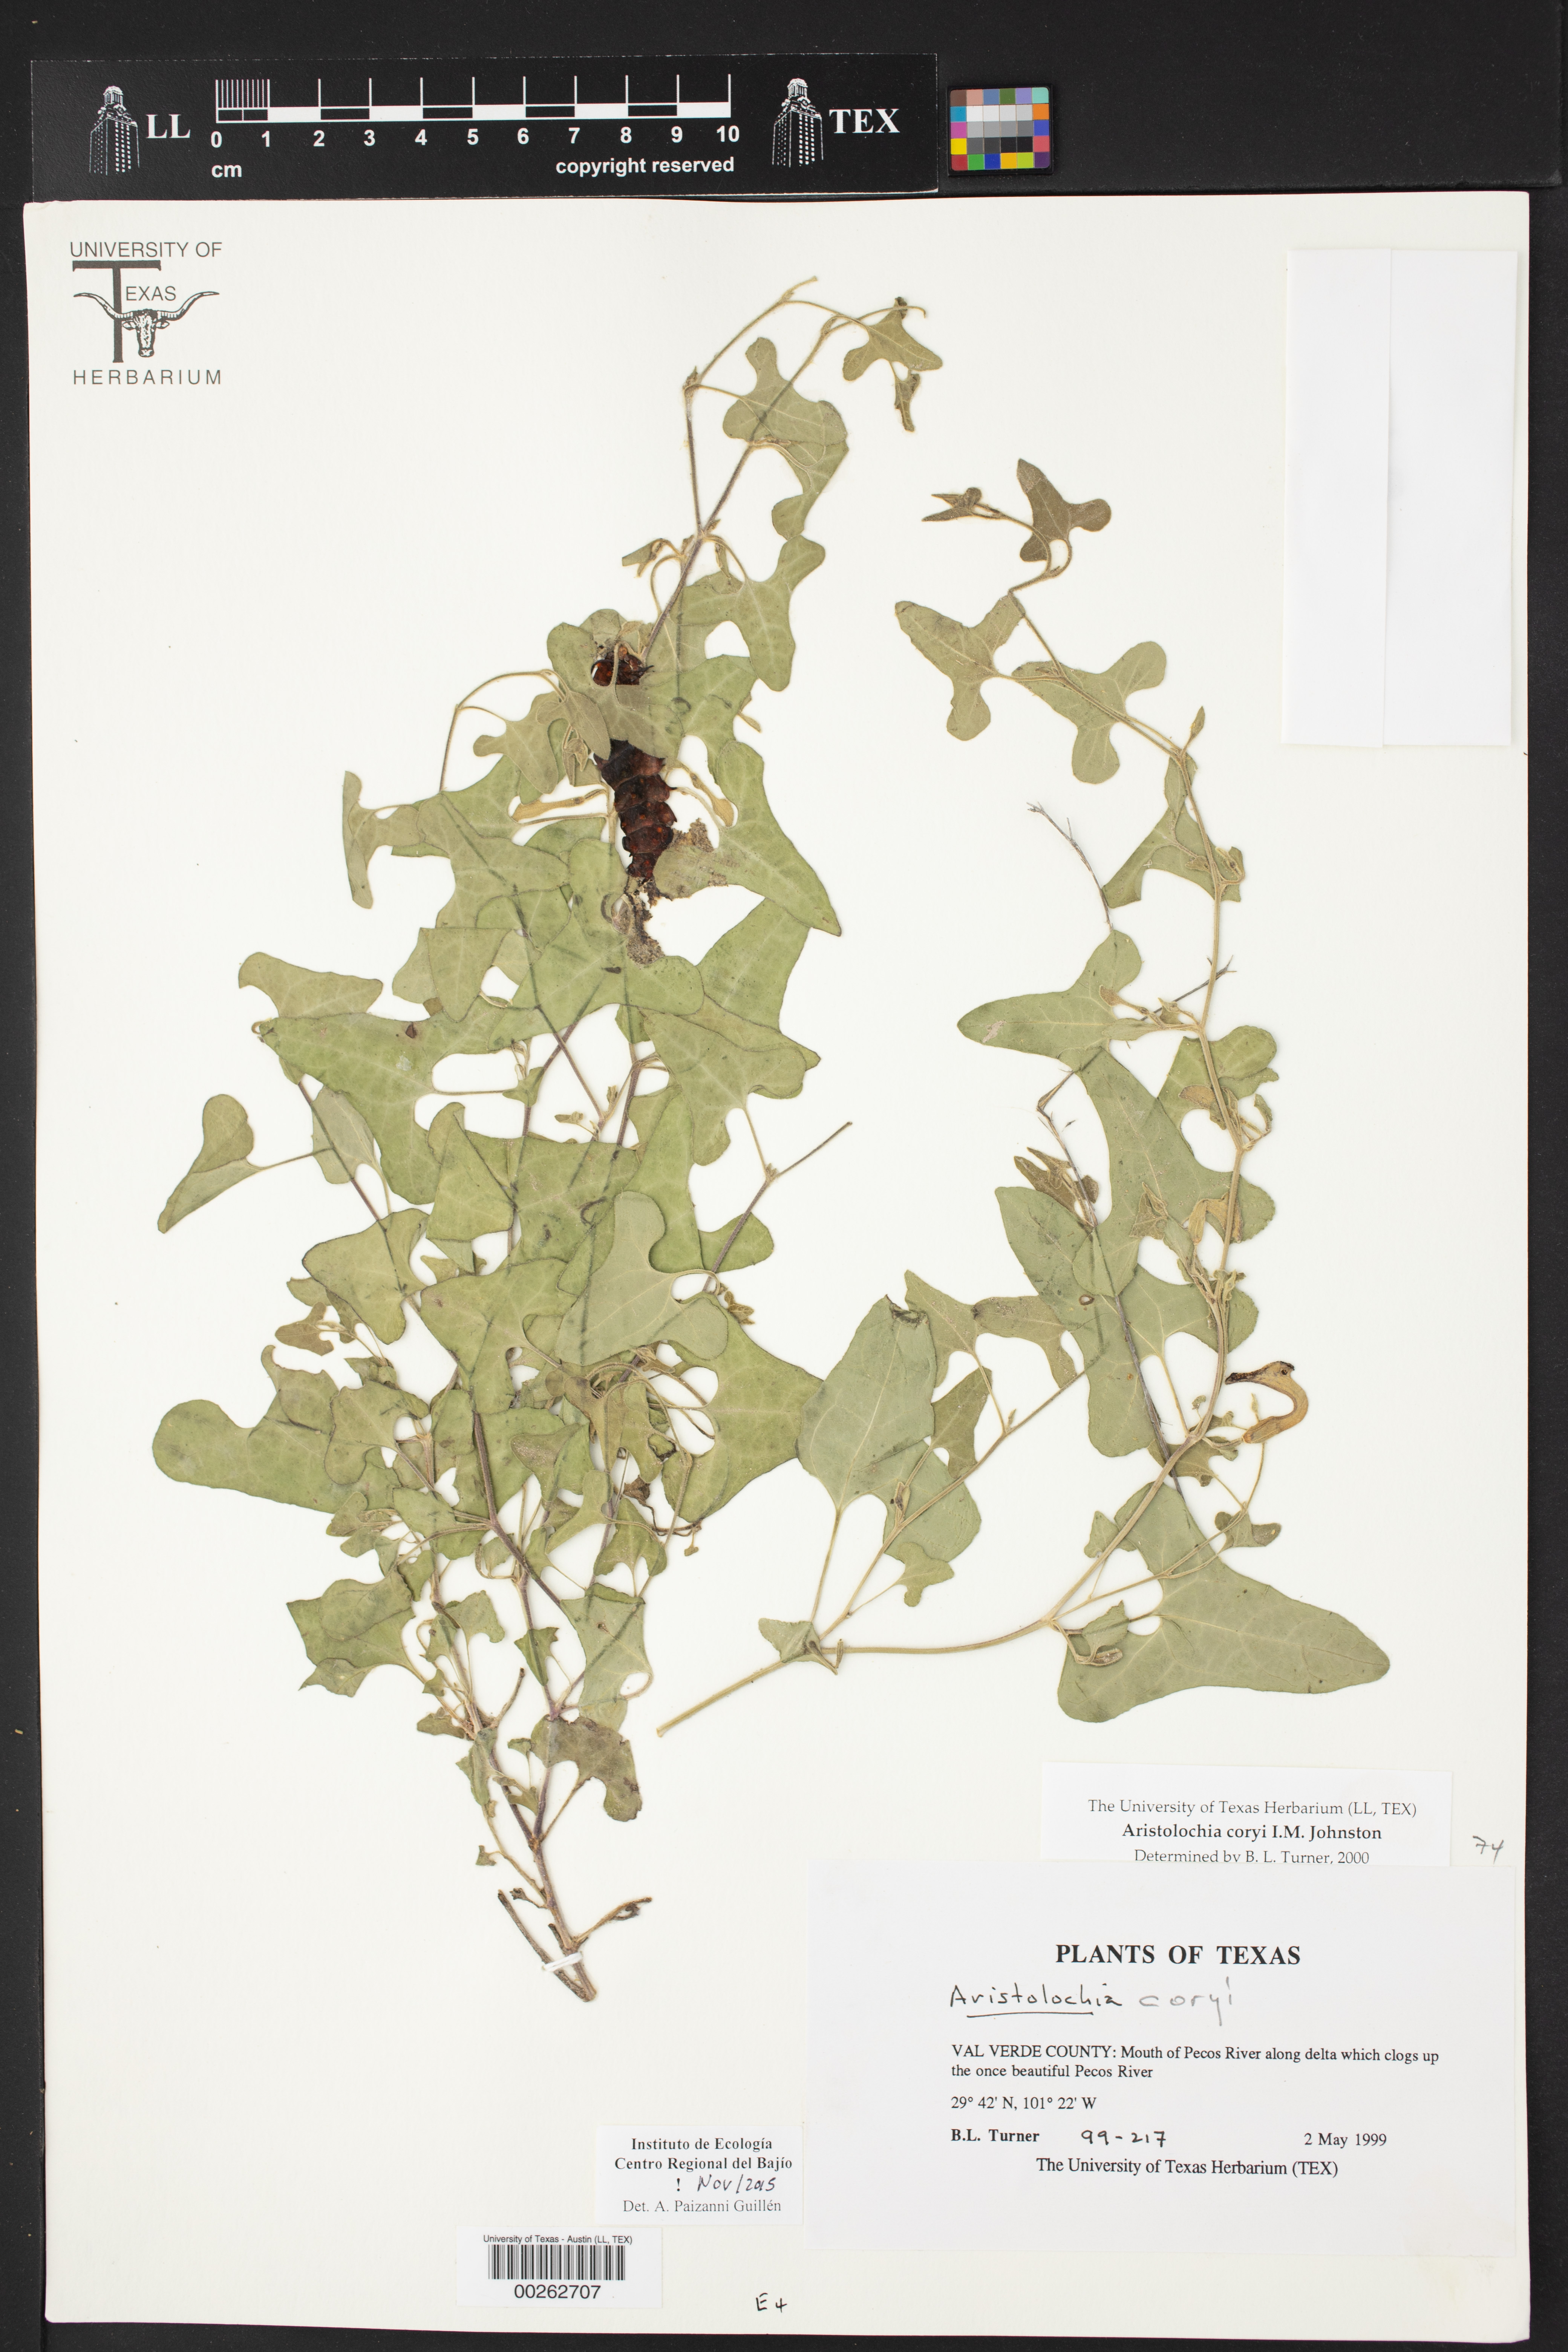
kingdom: Plantae
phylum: Tracheophyta
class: Magnoliopsida
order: Piperales
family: Aristolochiaceae
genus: Aristolochia
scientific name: Aristolochia coryi
